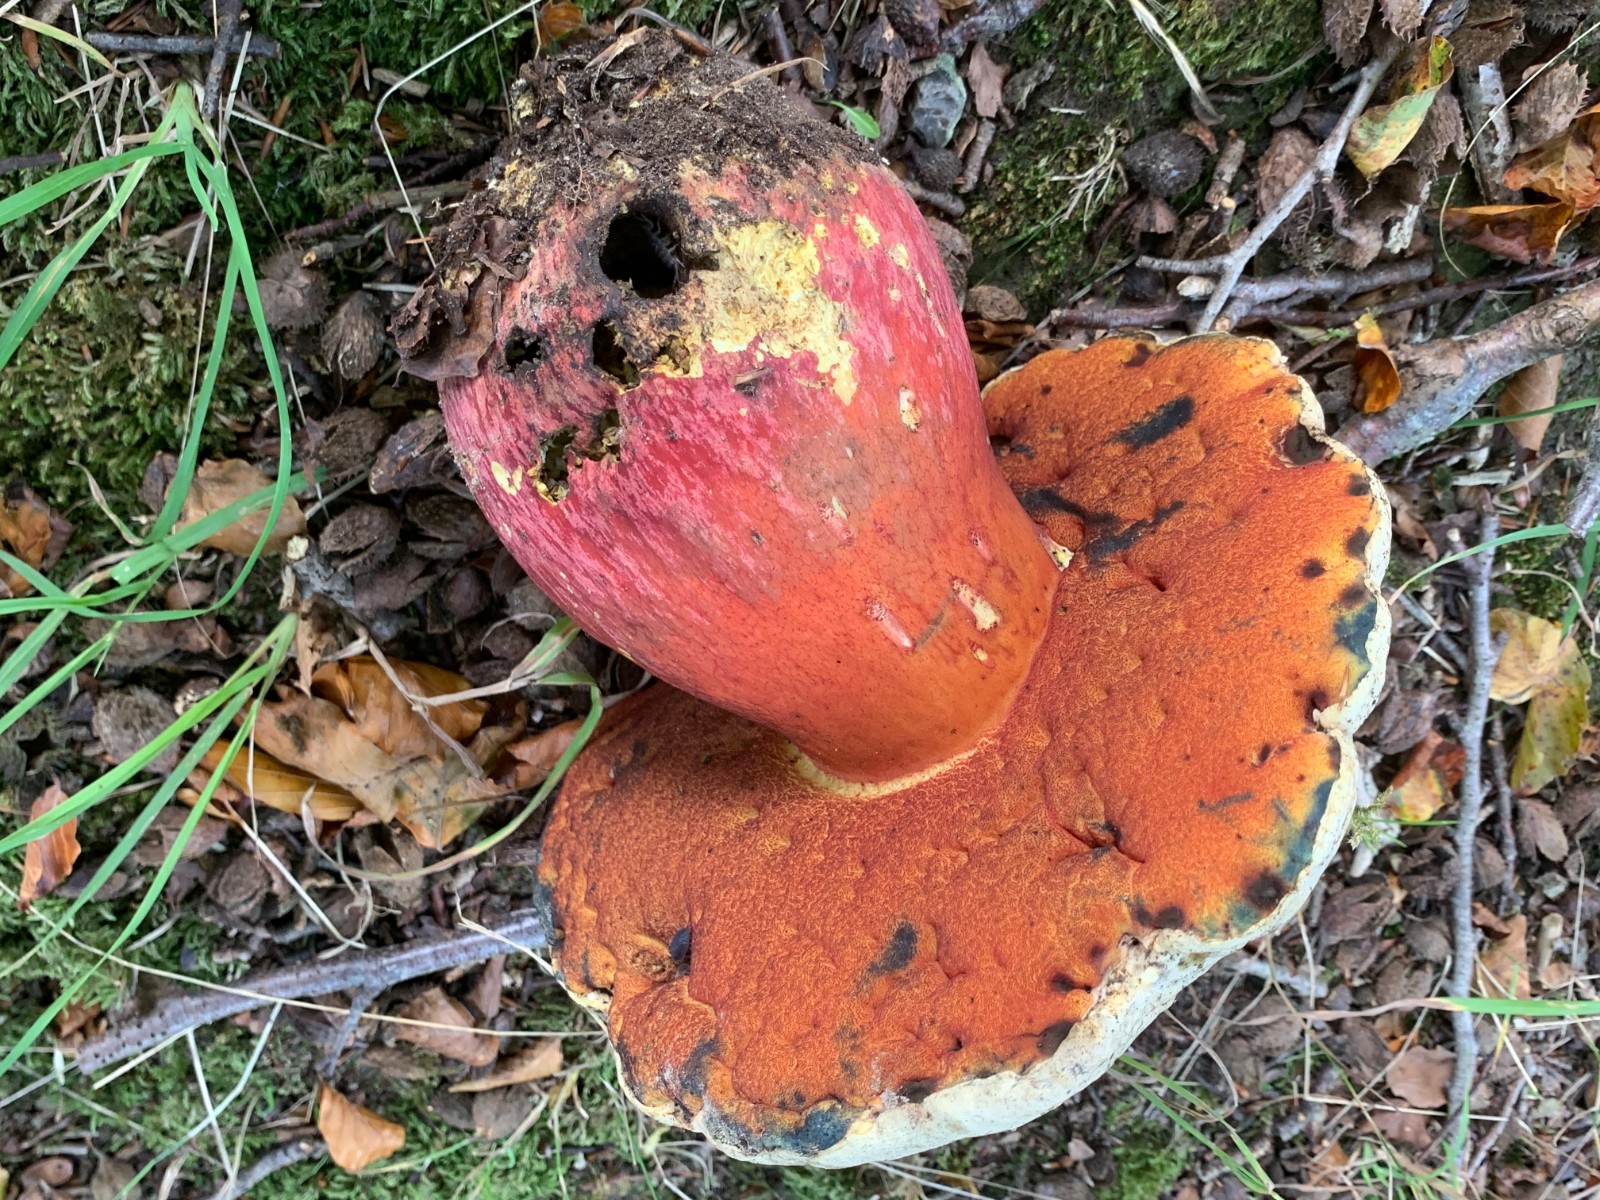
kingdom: Fungi
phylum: Basidiomycota
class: Agaricomycetes
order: Boletales
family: Boletaceae
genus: Rubroboletus
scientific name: Rubroboletus satanas
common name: Satans rørhat
